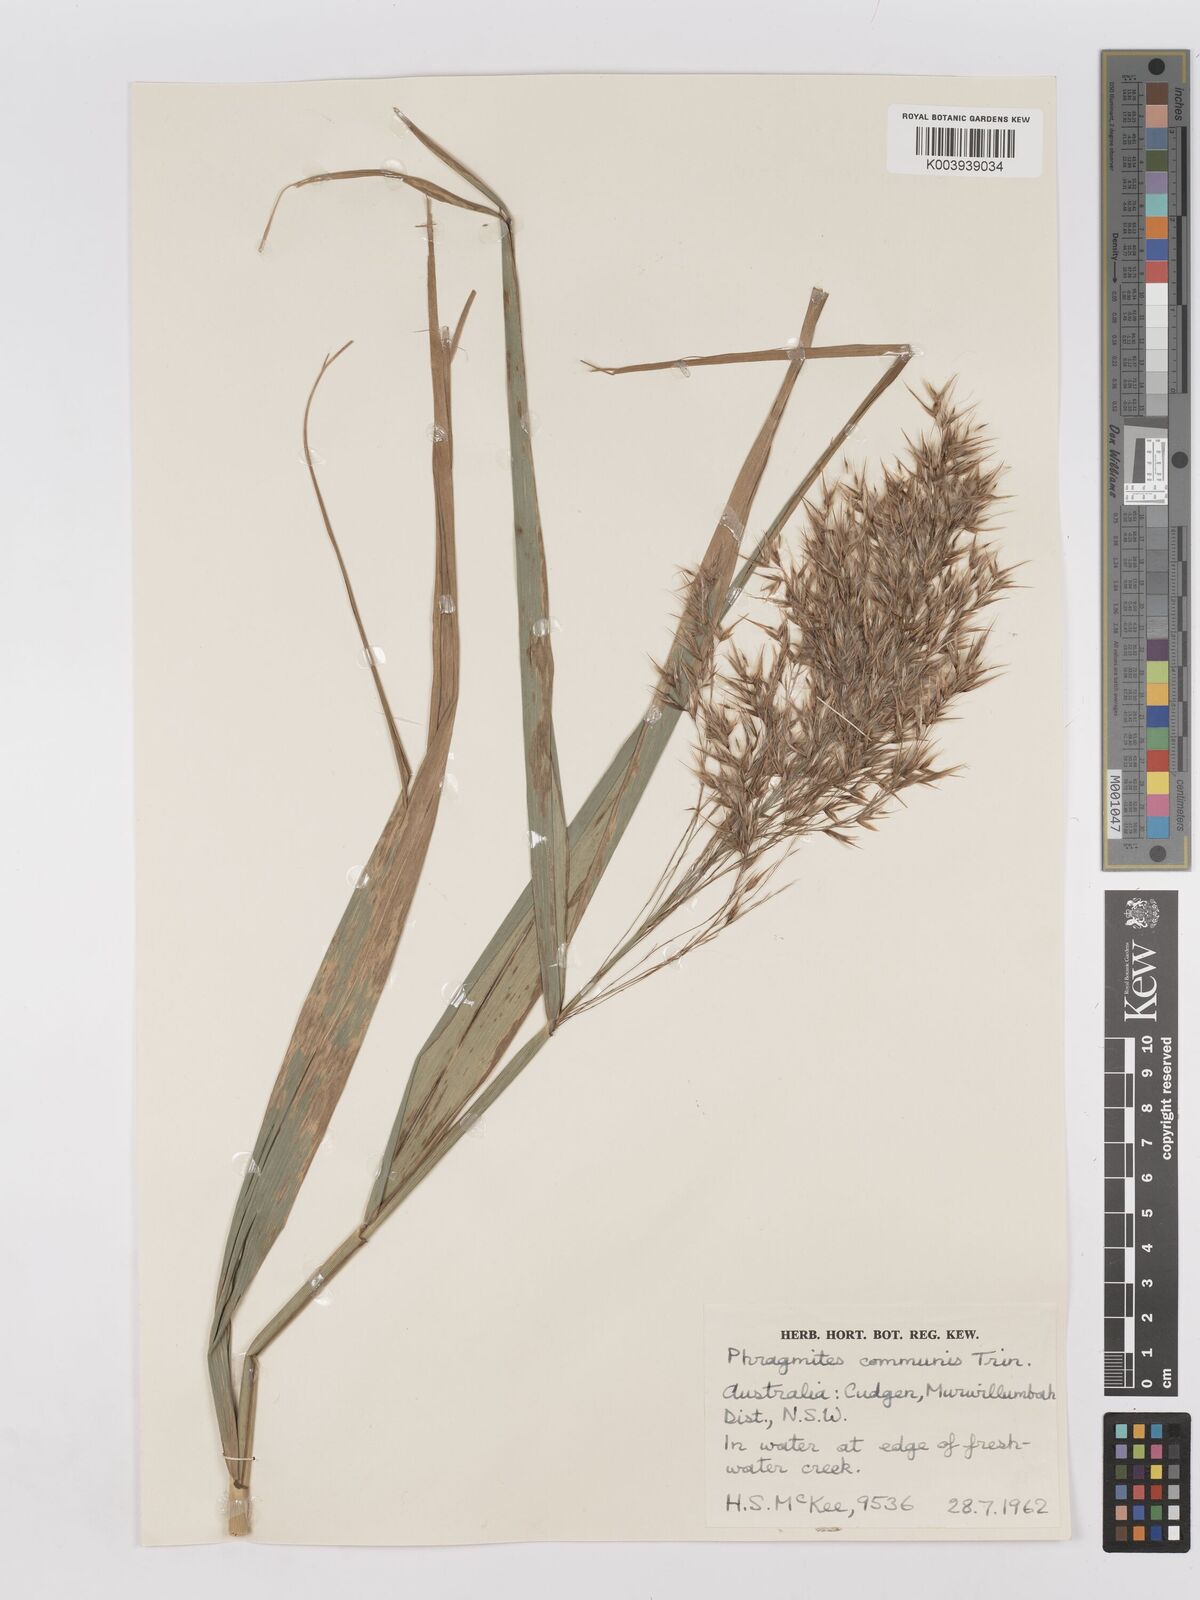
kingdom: Plantae
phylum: Tracheophyta
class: Liliopsida
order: Poales
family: Poaceae
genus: Phragmites
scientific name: Phragmites australis
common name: Common reed
